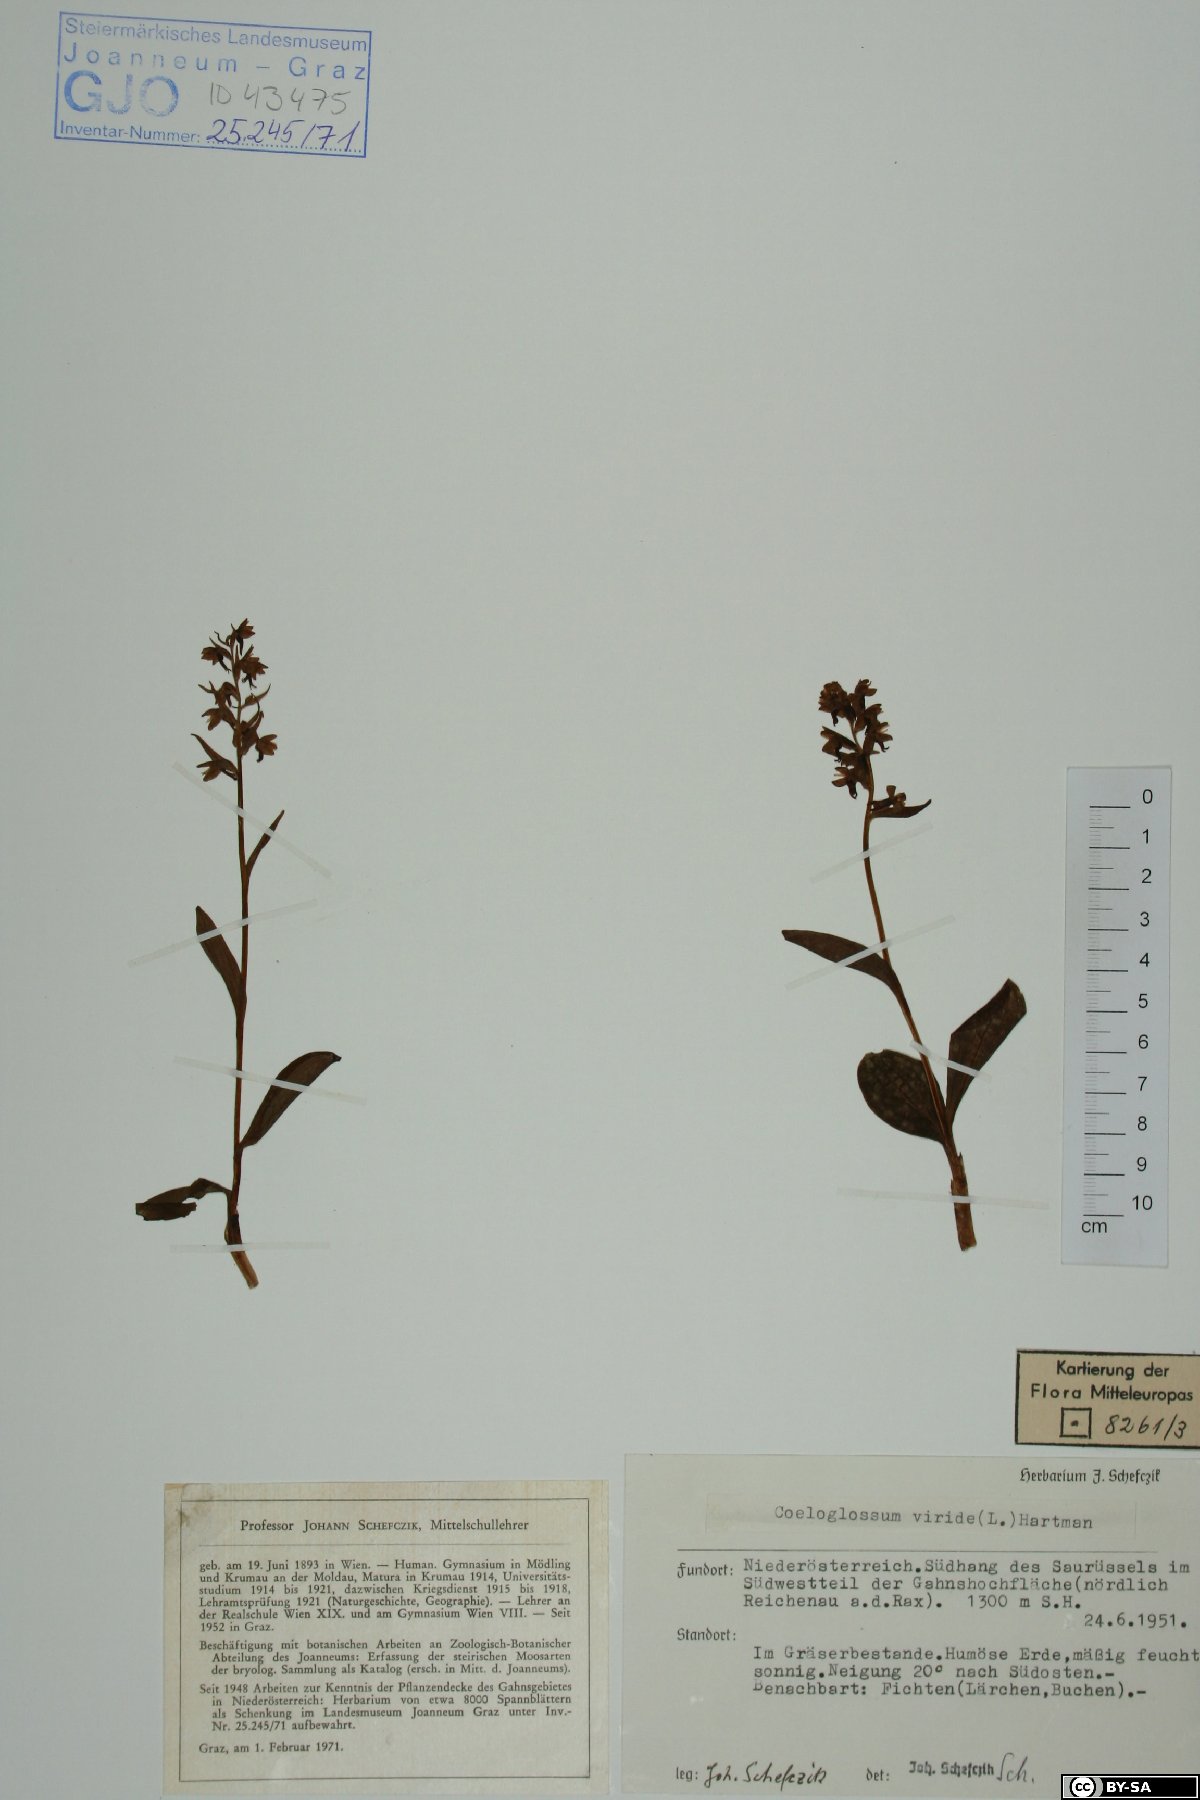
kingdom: Plantae
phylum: Tracheophyta
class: Liliopsida
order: Asparagales
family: Orchidaceae
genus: Dactylorhiza
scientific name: Dactylorhiza viridis
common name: Longbract frog orchid
